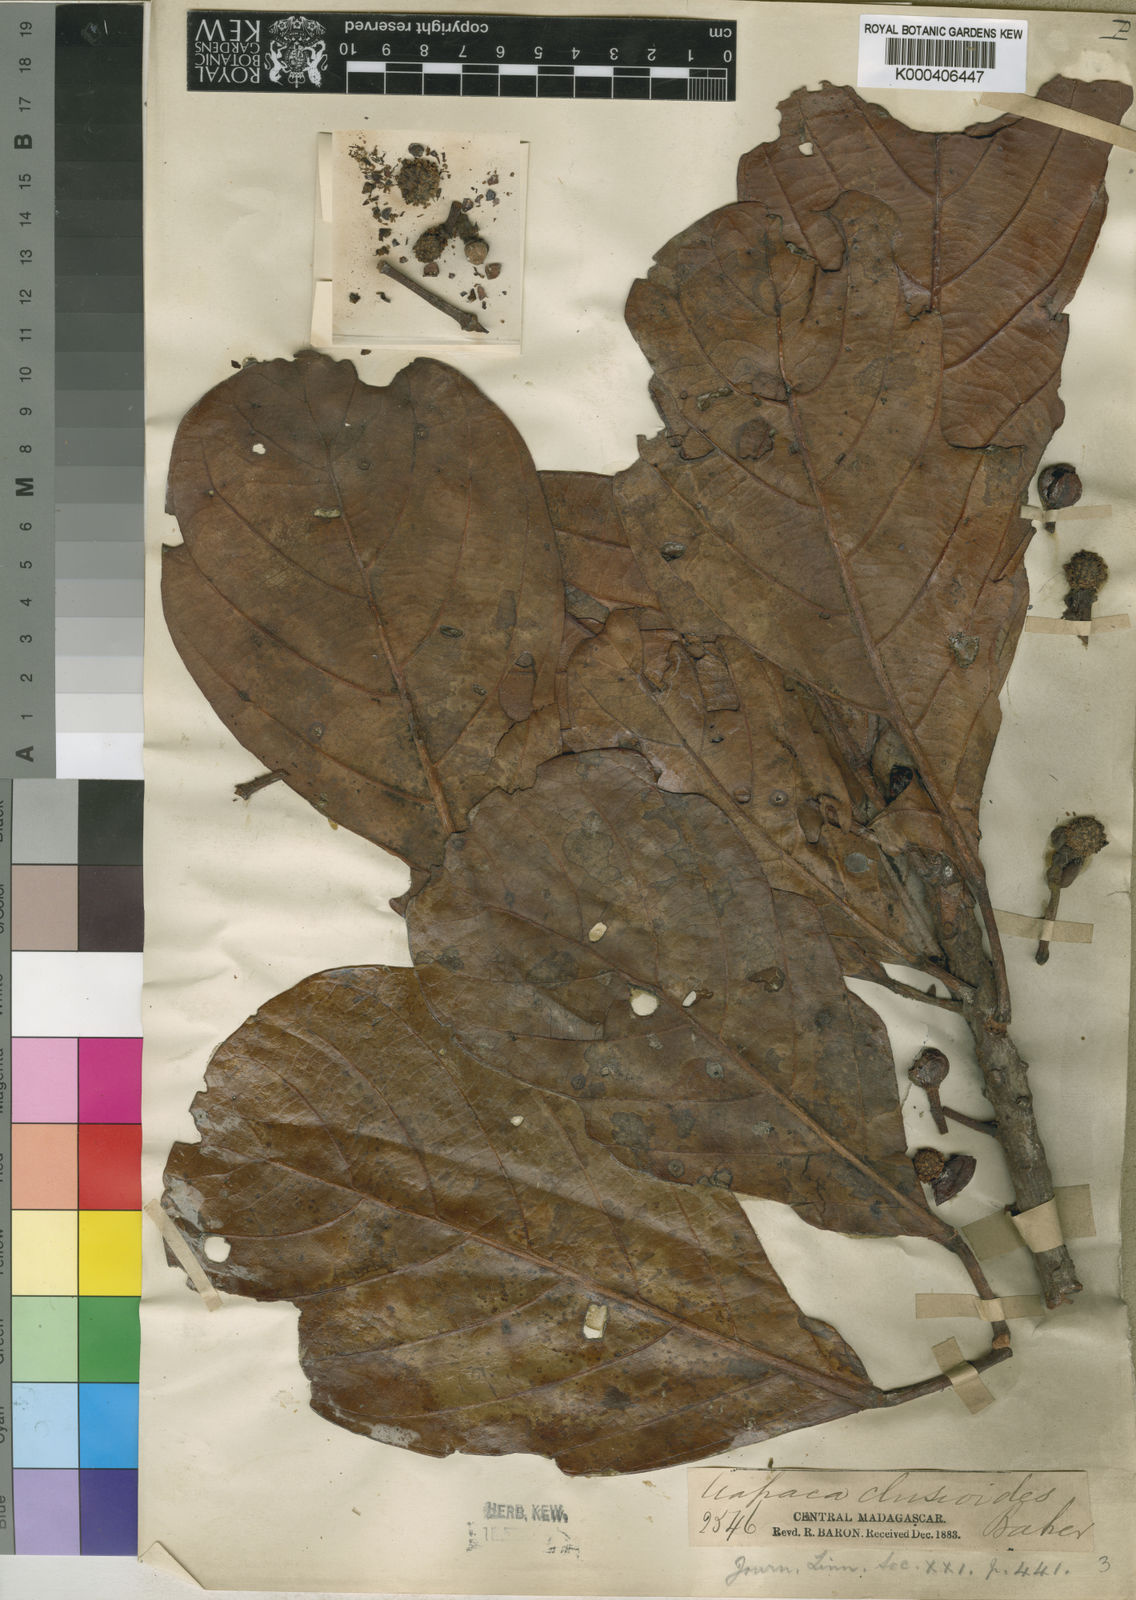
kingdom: Plantae
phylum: Tracheophyta
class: Magnoliopsida
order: Malpighiales
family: Phyllanthaceae
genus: Uapaca
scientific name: Uapaca ferruginea
